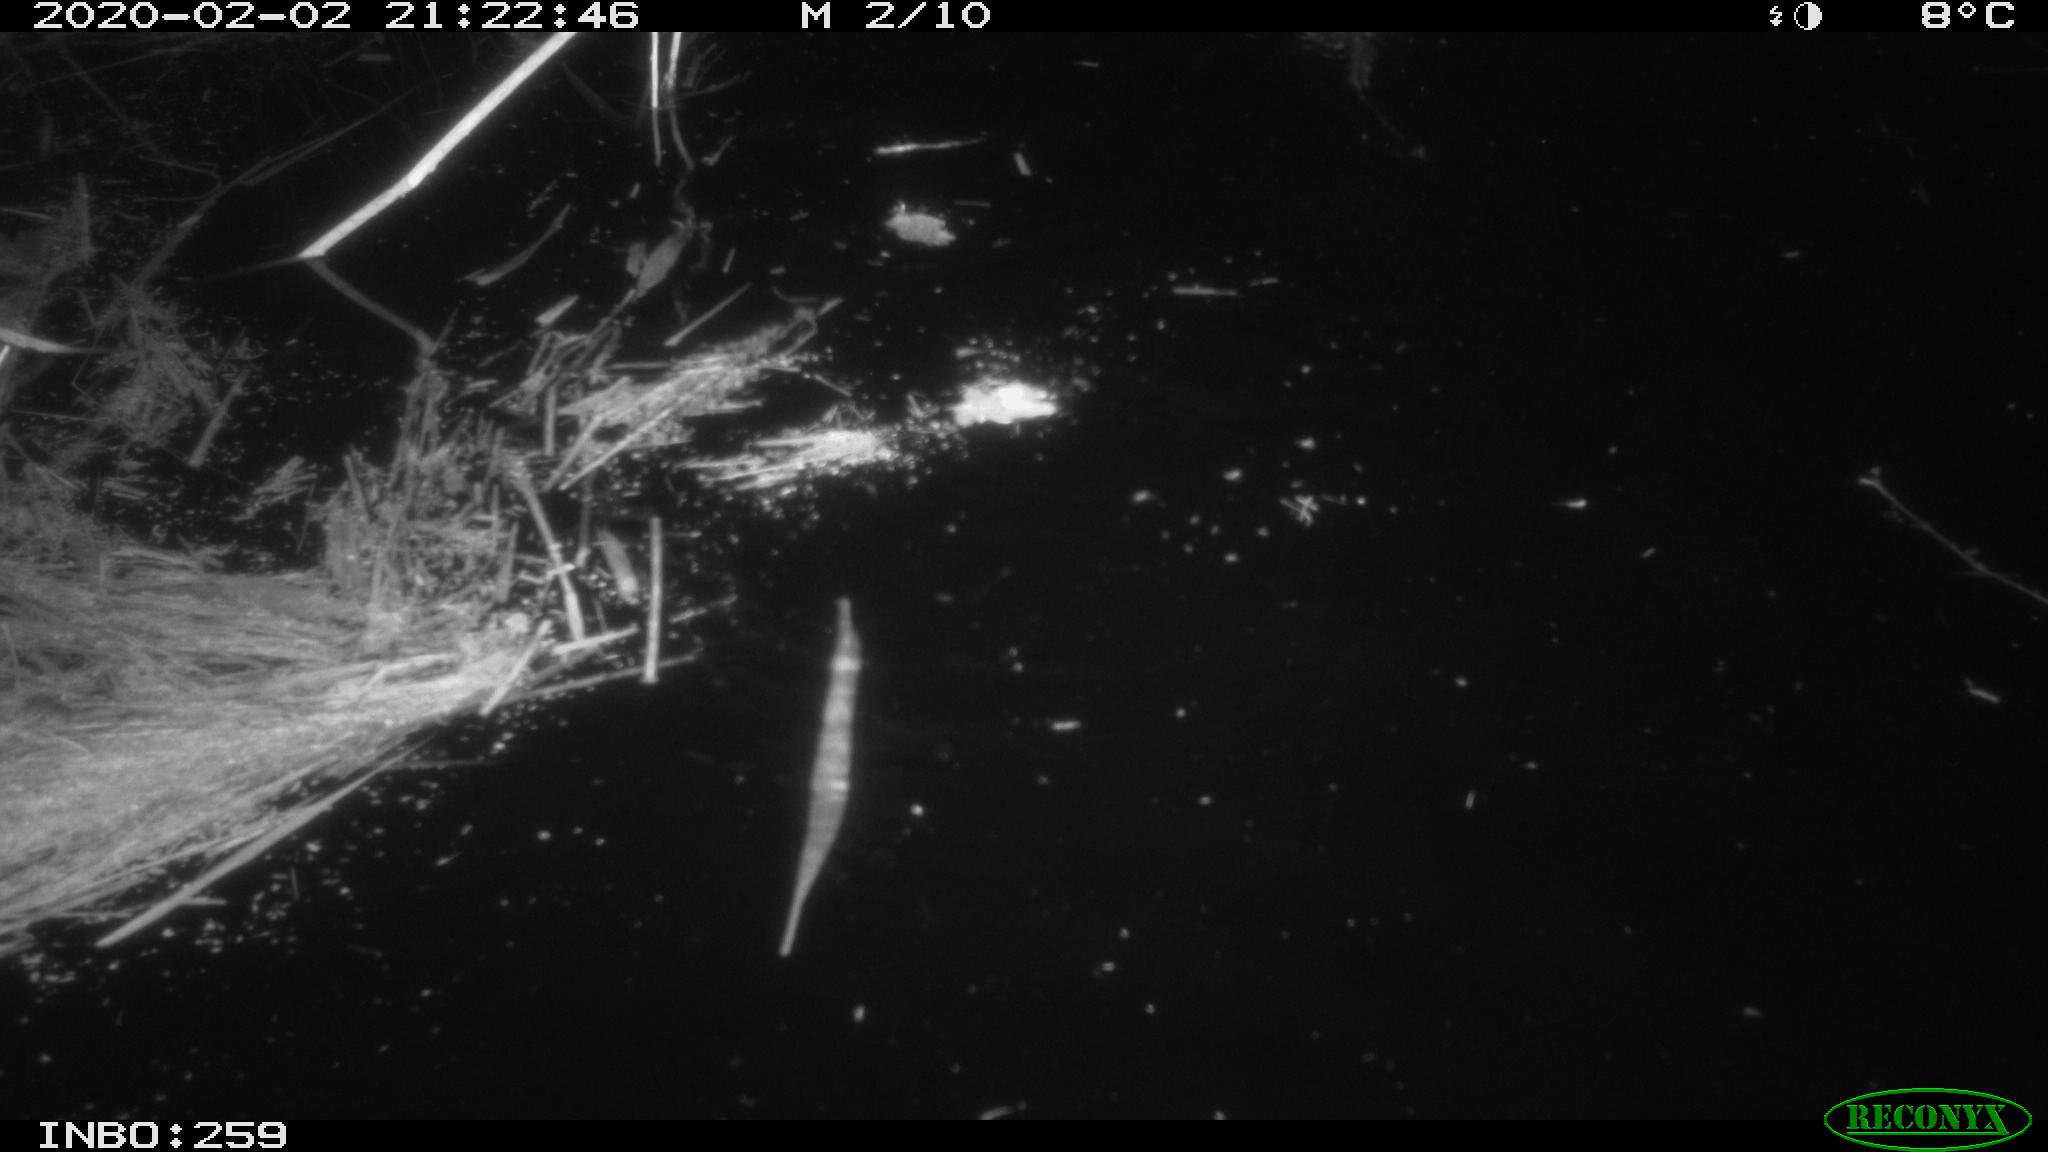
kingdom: Animalia
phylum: Chordata
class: Mammalia
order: Rodentia
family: Cricetidae
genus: Ondatra
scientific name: Ondatra zibethicus
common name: Muskrat
